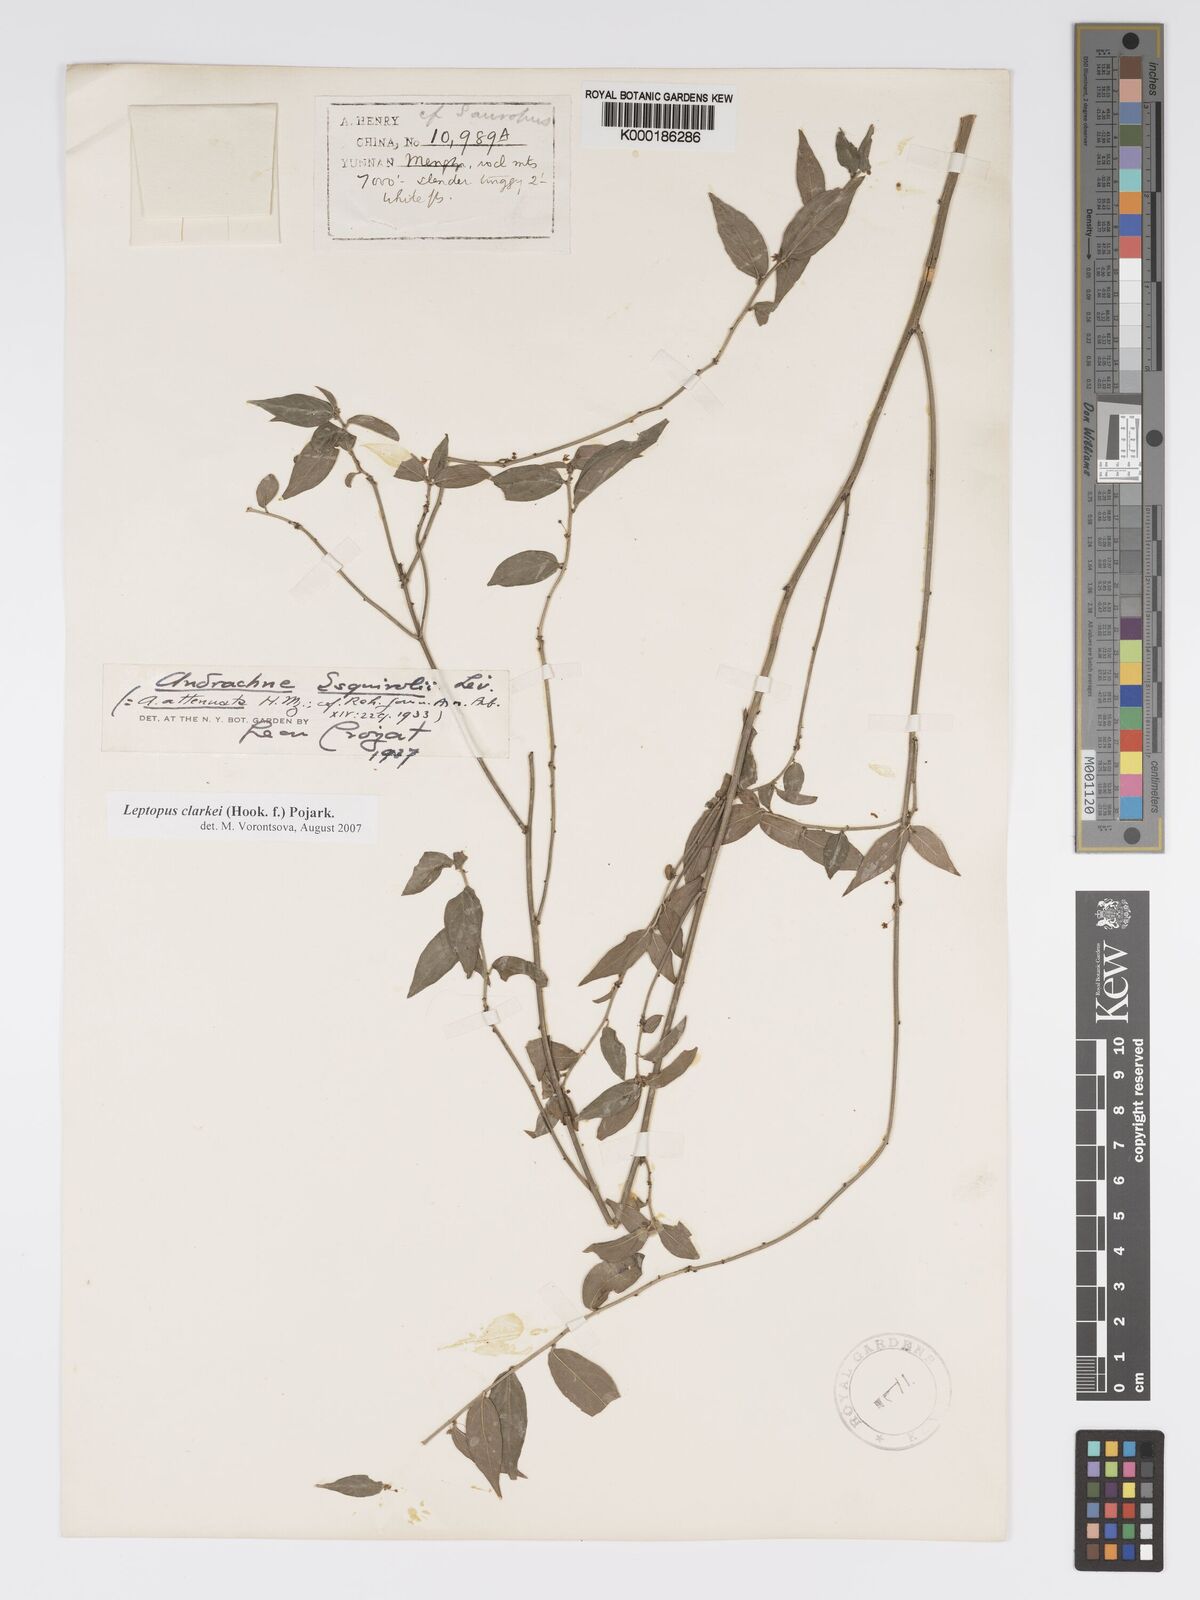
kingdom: Plantae
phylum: Tracheophyta
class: Magnoliopsida
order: Malpighiales
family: Phyllanthaceae
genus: Leptopus
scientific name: Leptopus clarkei
